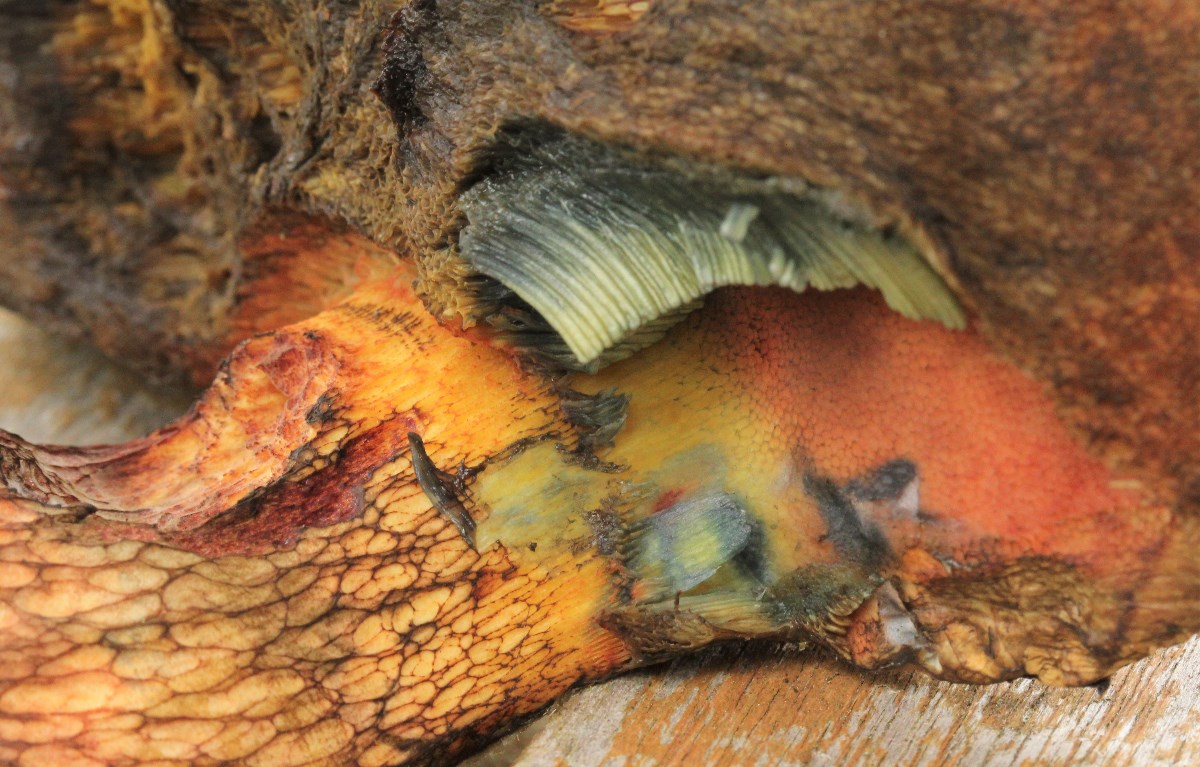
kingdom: Fungi
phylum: Basidiomycota
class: Agaricomycetes
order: Boletales
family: Boletaceae
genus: Suillellus
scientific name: Suillellus luridus
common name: netstokket indigorørhat
